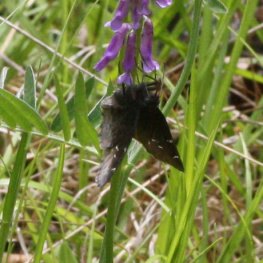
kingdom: Animalia
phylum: Arthropoda
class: Insecta
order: Lepidoptera
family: Hesperiidae
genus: Autochton
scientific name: Autochton
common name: Northern Cloudywing
